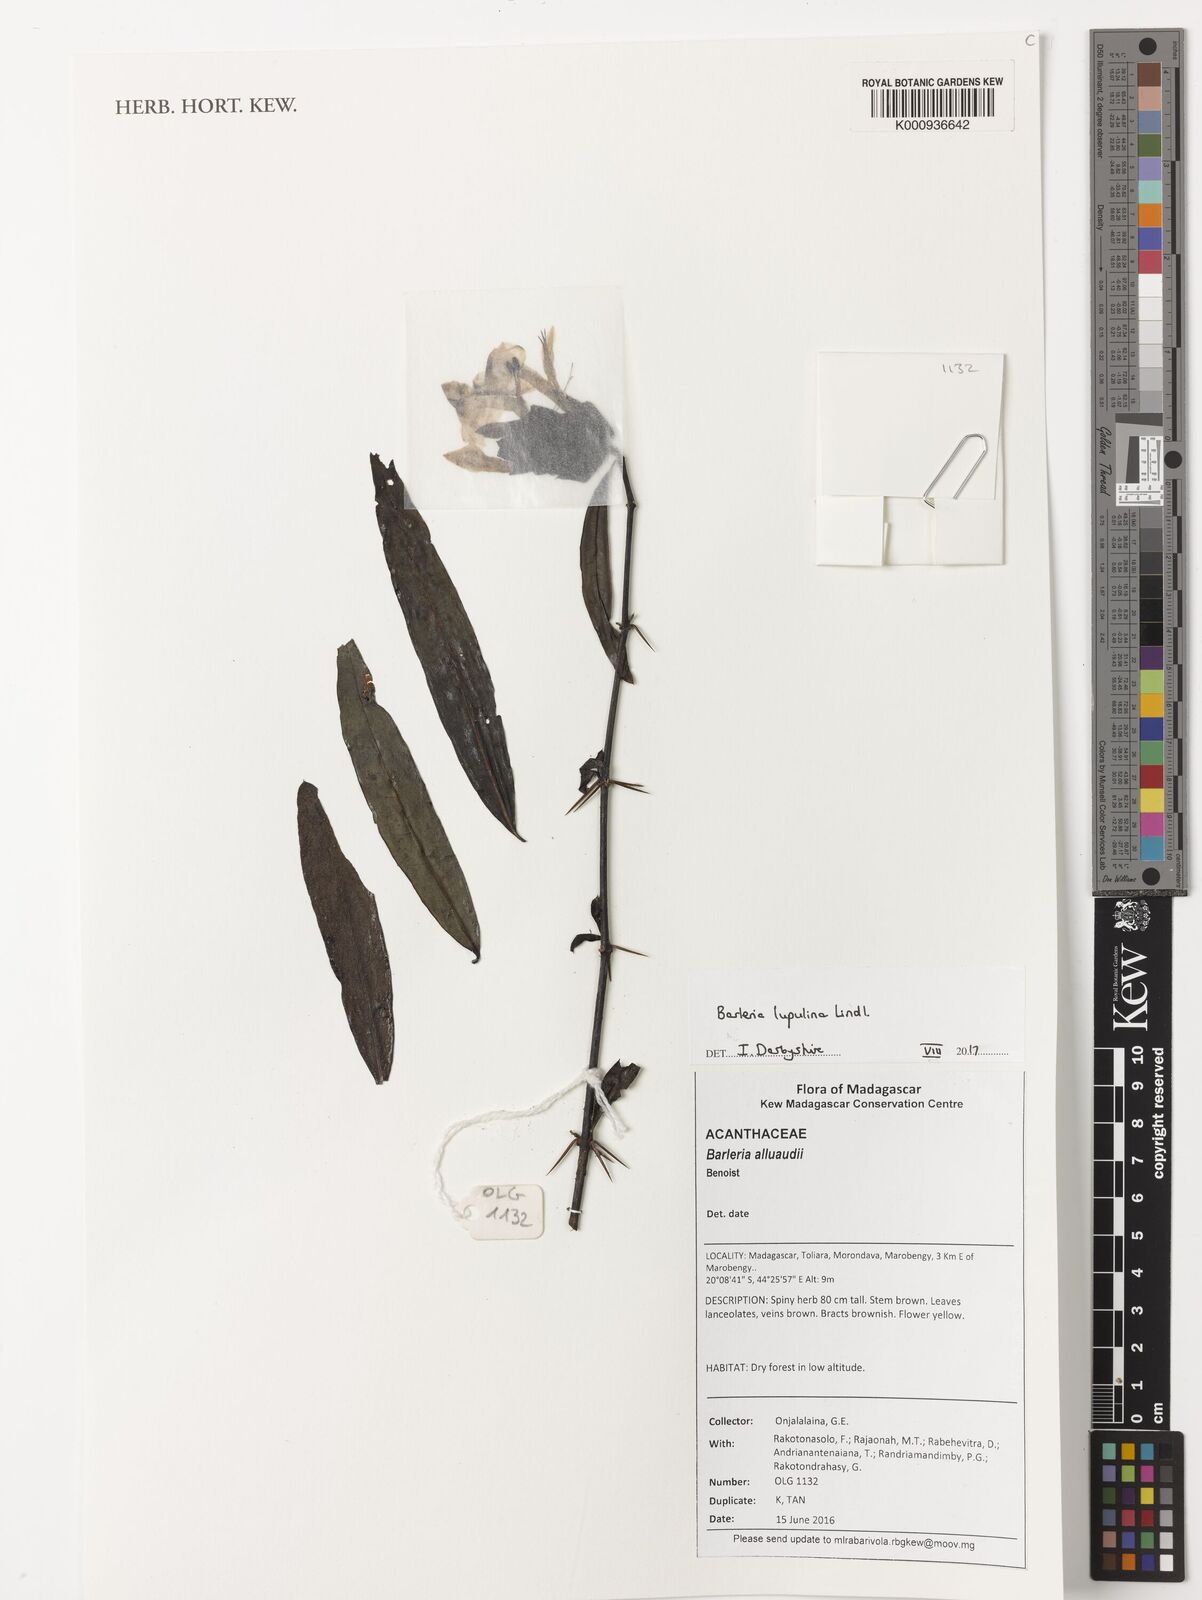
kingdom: Plantae
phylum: Tracheophyta
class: Magnoliopsida
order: Lamiales
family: Acanthaceae
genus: Barleria
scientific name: Barleria lupulina
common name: Hophead philippine violet
